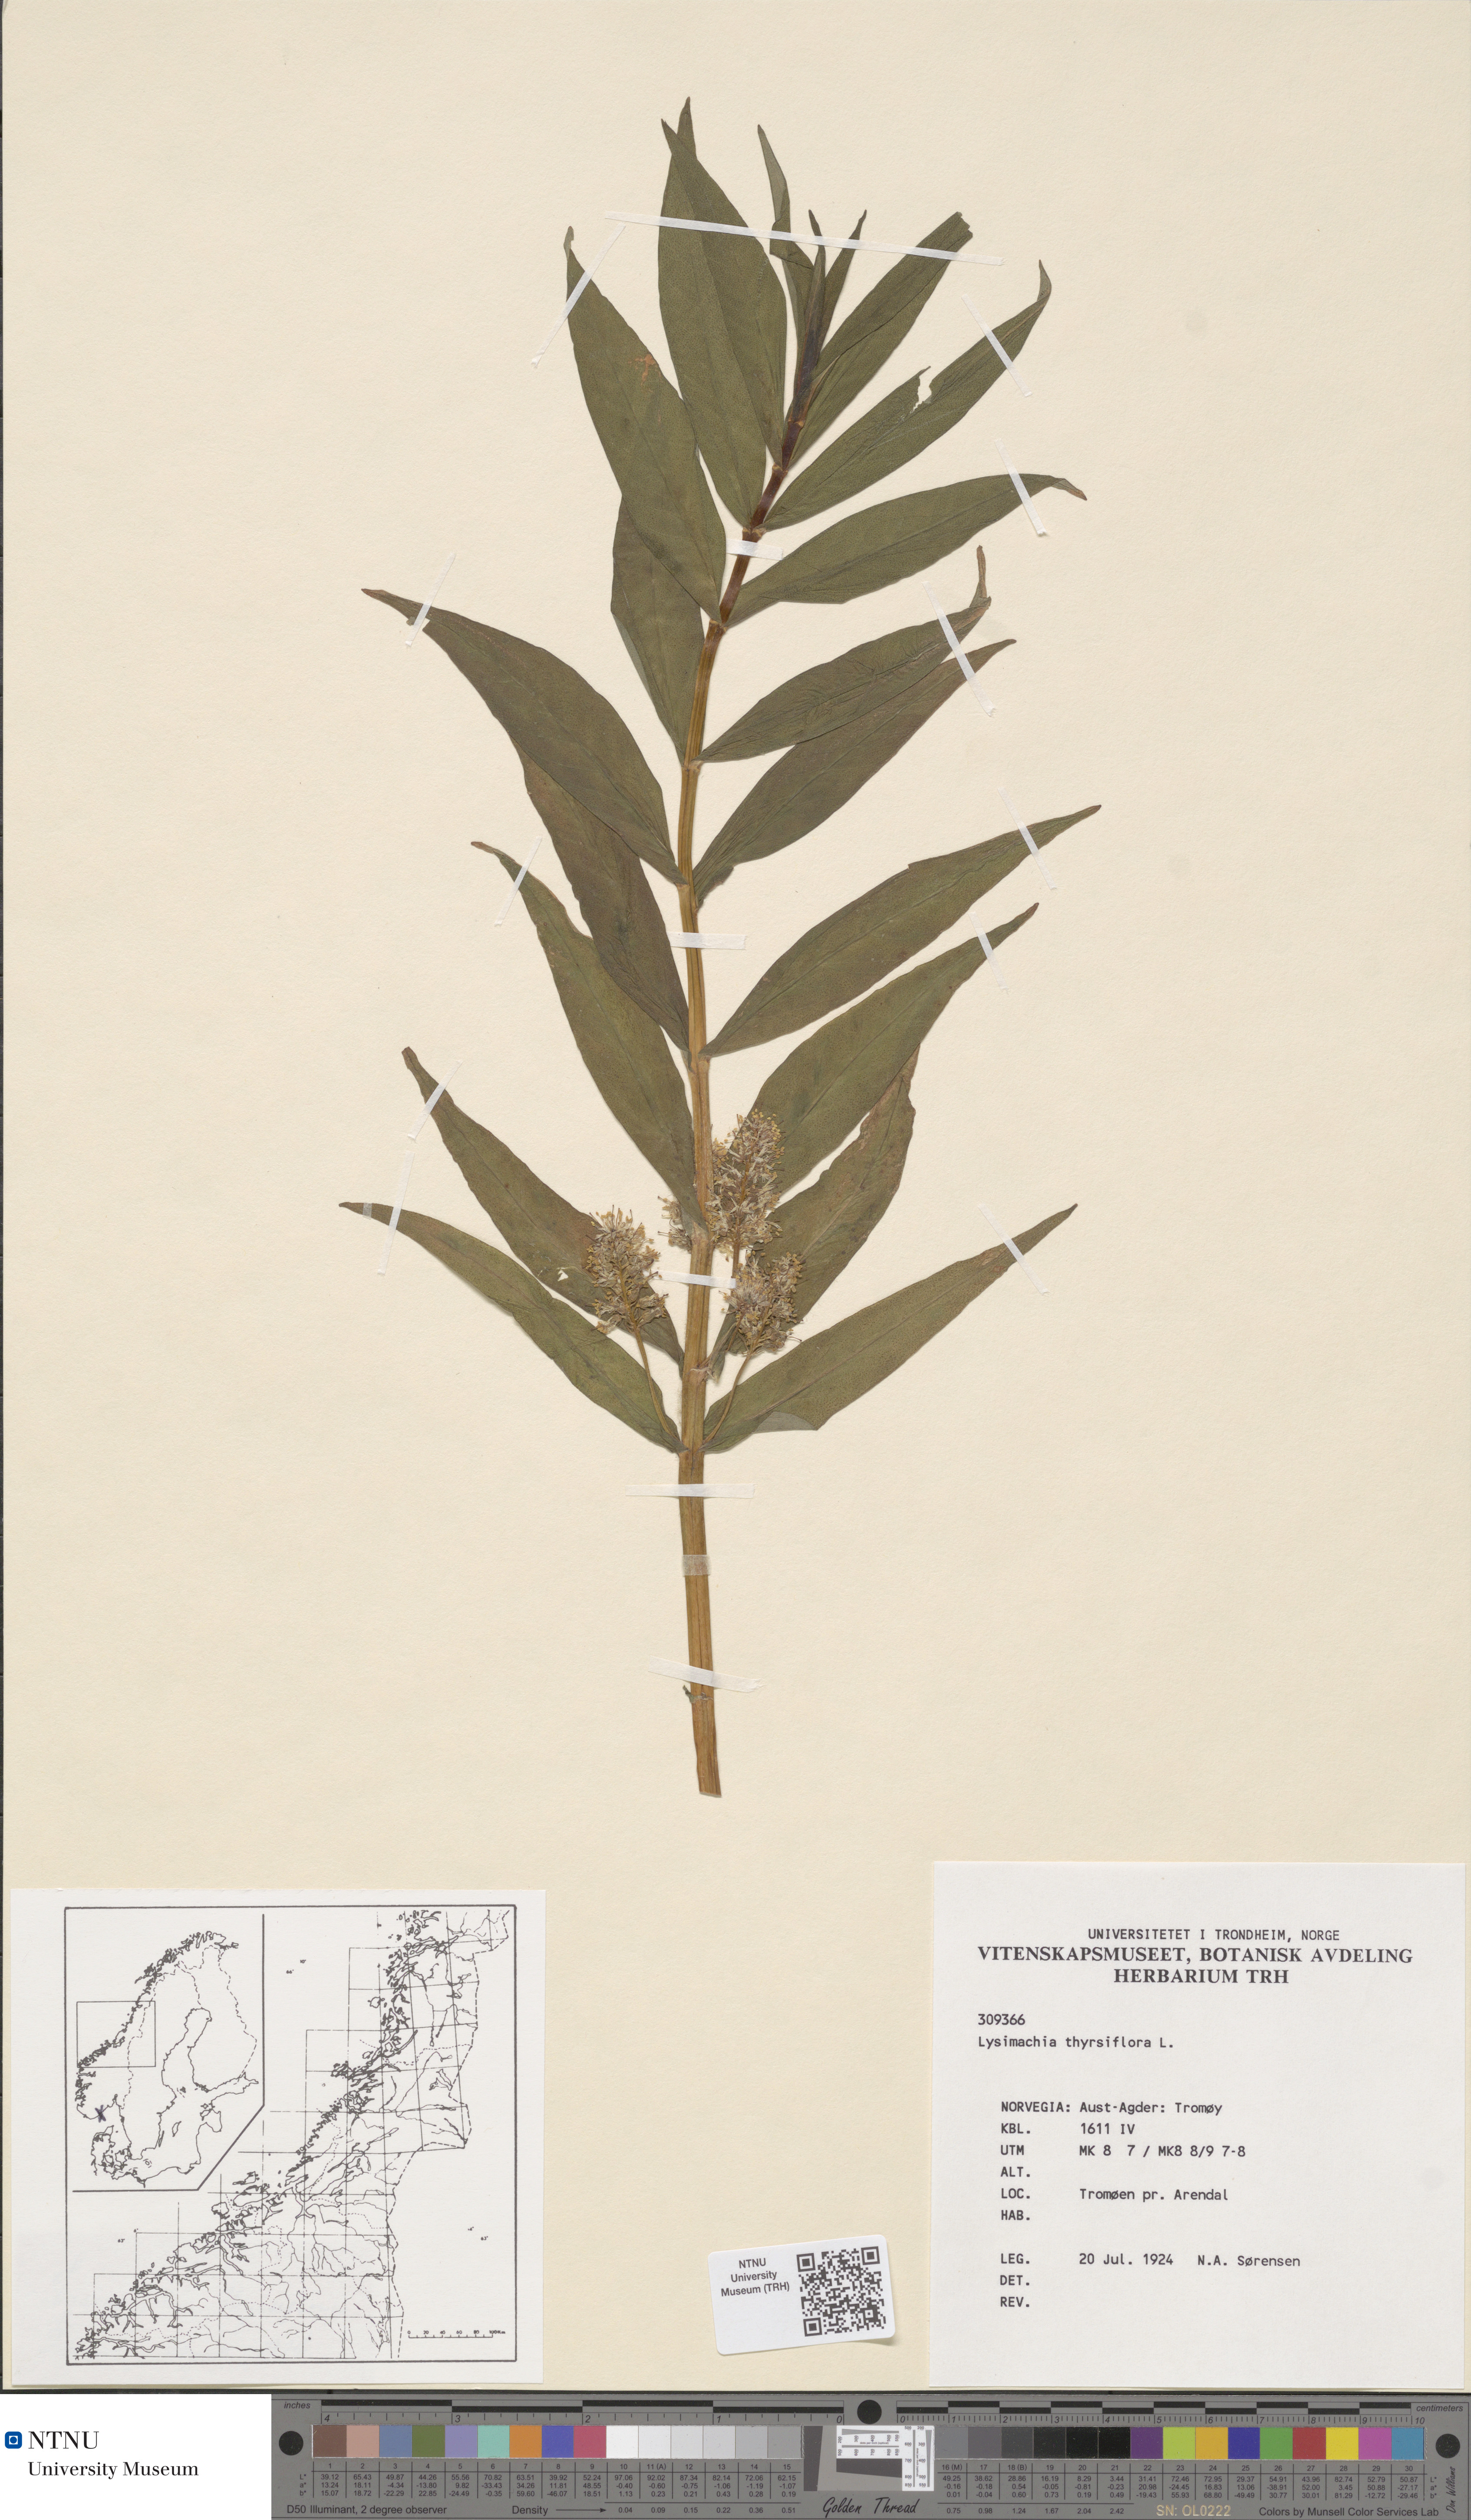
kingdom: Plantae
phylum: Tracheophyta
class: Magnoliopsida
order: Ericales
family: Primulaceae
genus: Lysimachia
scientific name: Lysimachia thyrsiflora
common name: Tufted loosestrife
